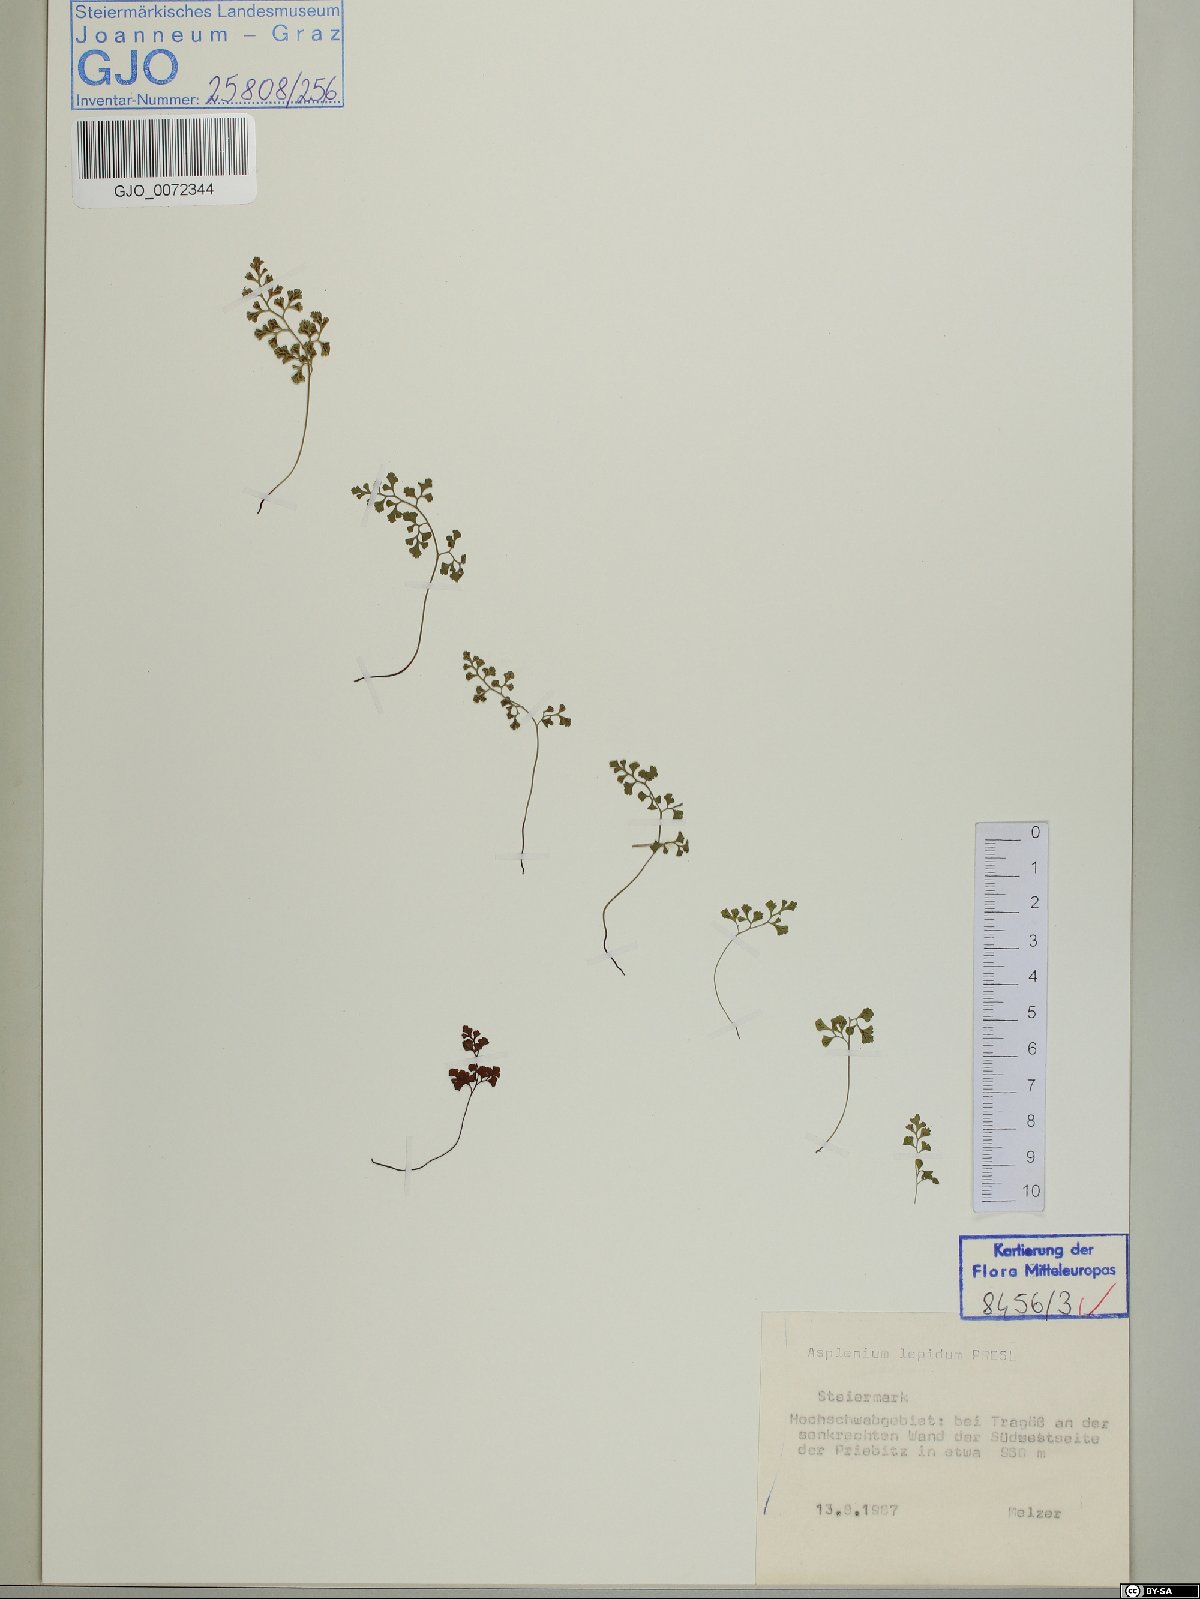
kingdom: Plantae
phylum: Tracheophyta
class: Polypodiopsida
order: Polypodiales
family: Aspleniaceae
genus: Asplenium
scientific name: Asplenium lepidum
